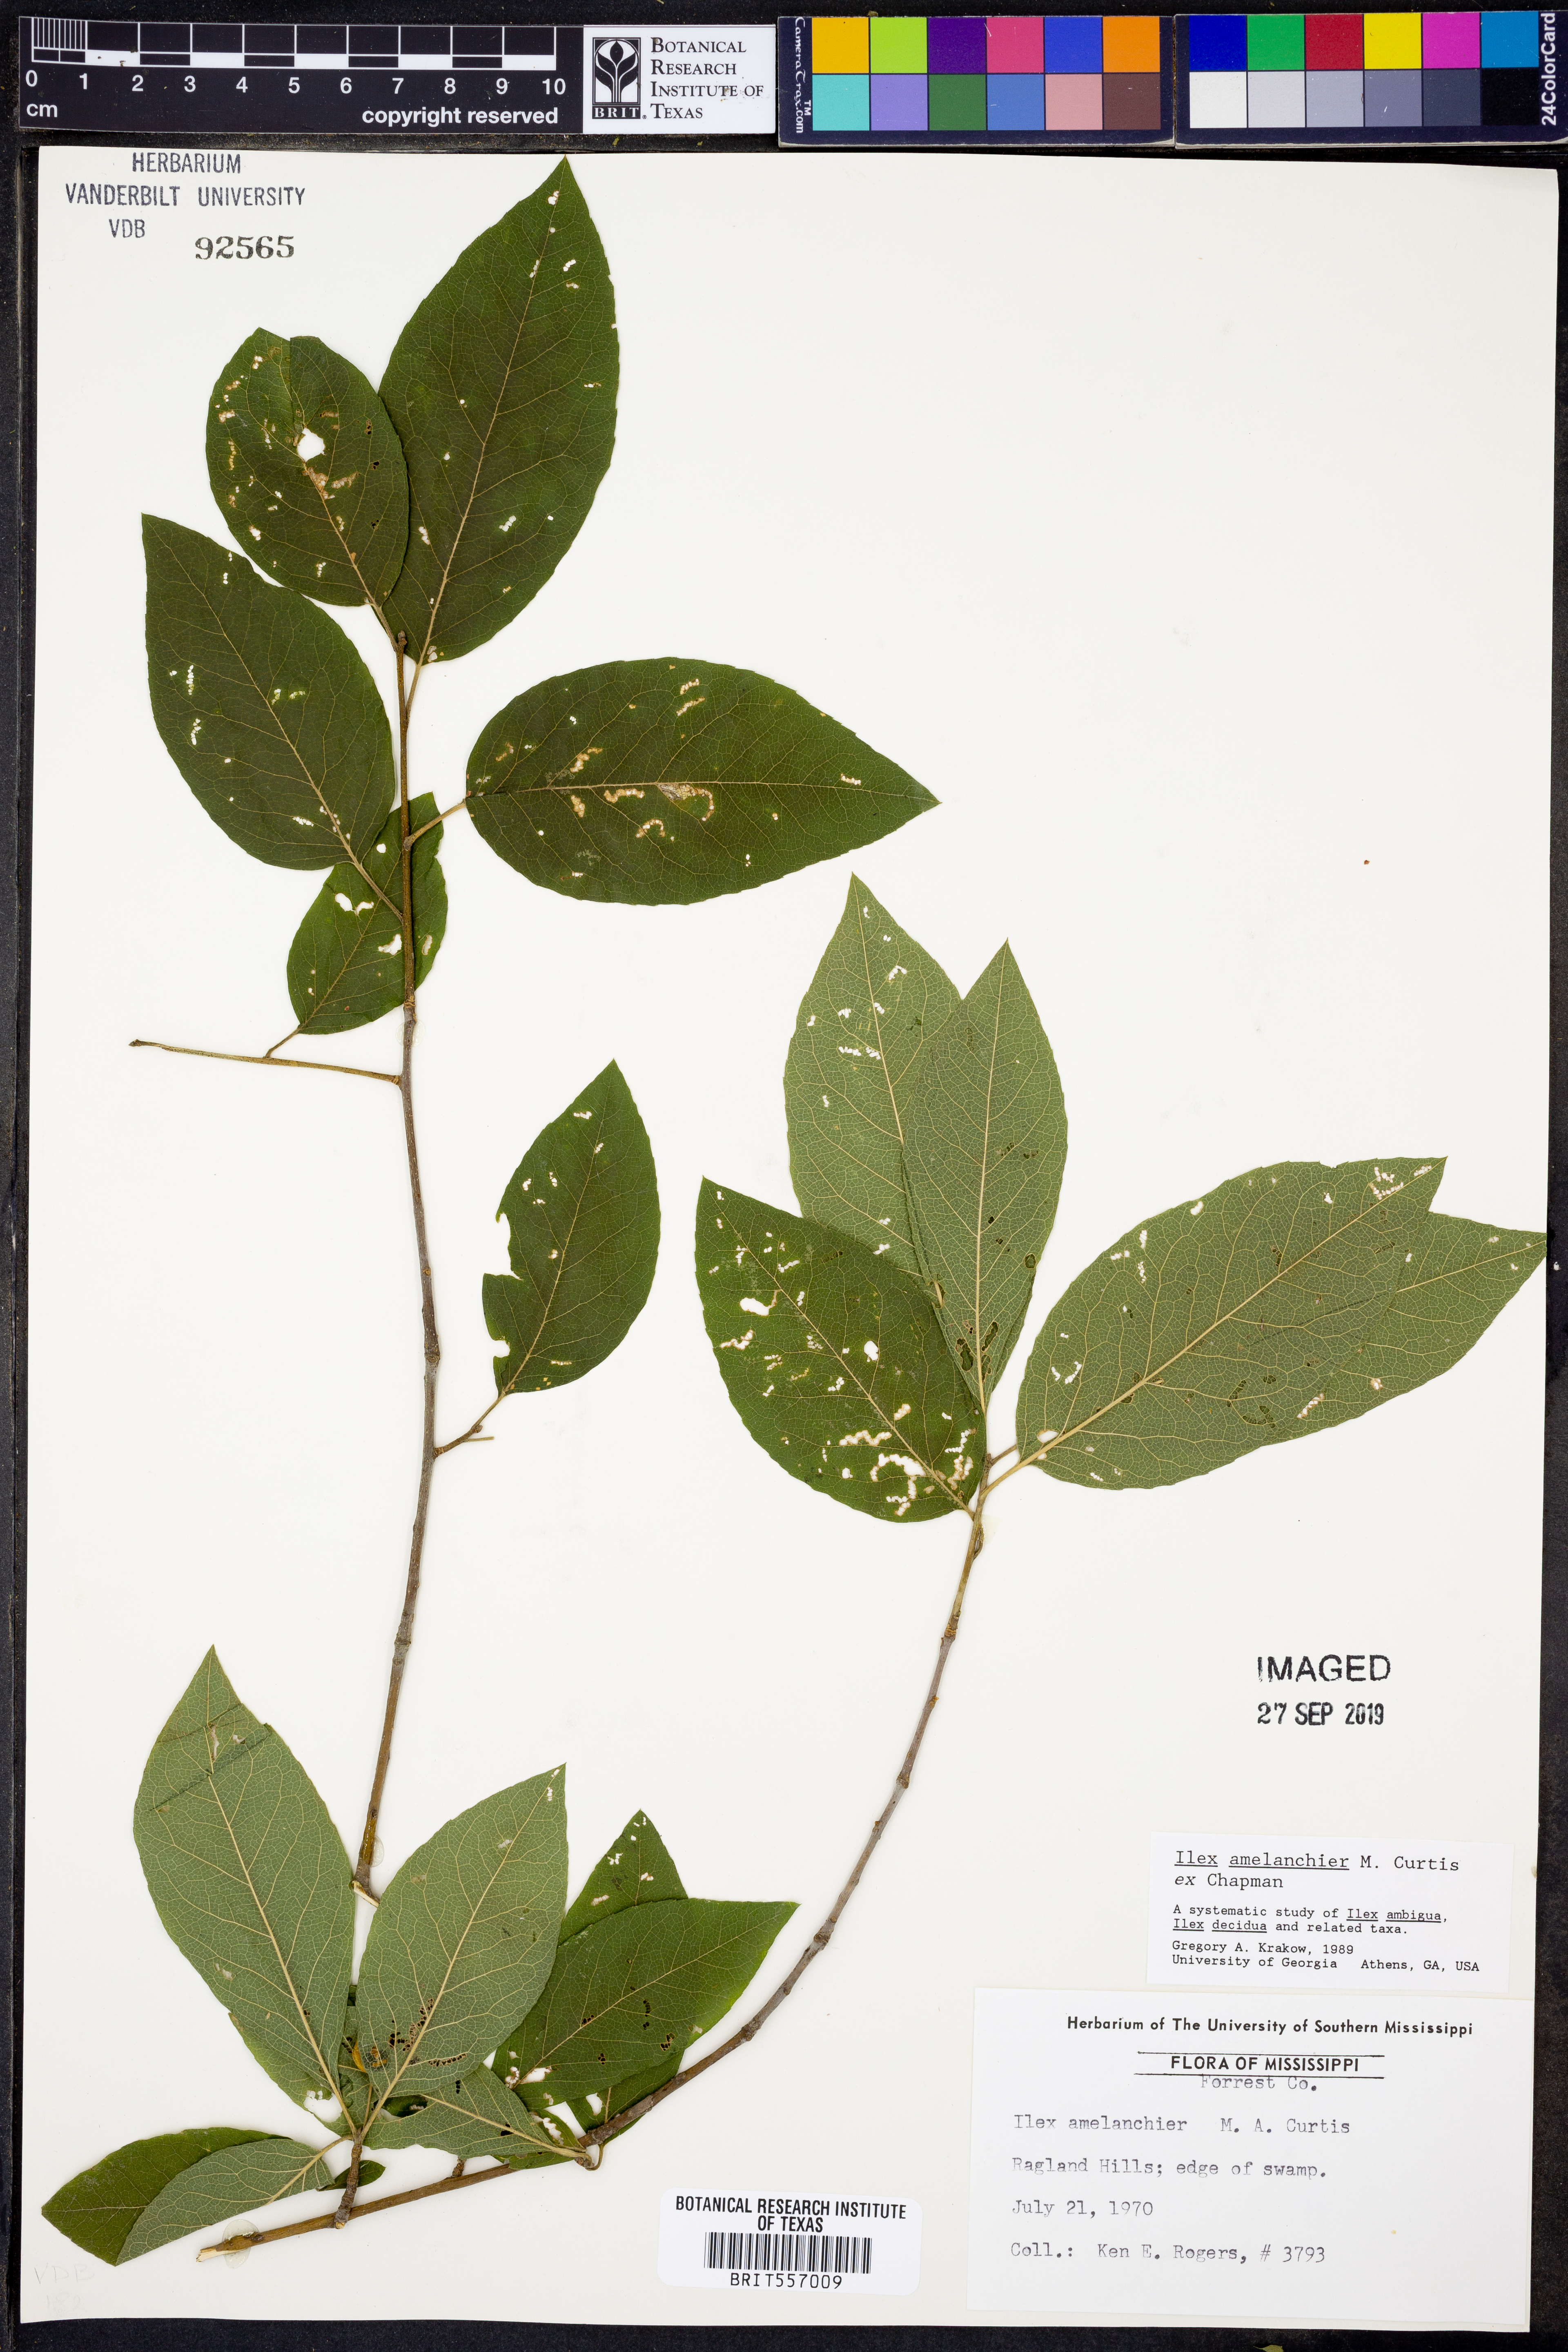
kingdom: Plantae
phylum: Tracheophyta
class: Magnoliopsida
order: Aquifoliales
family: Aquifoliaceae
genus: Ilex
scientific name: Ilex amelanchier
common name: Sarvis holly
